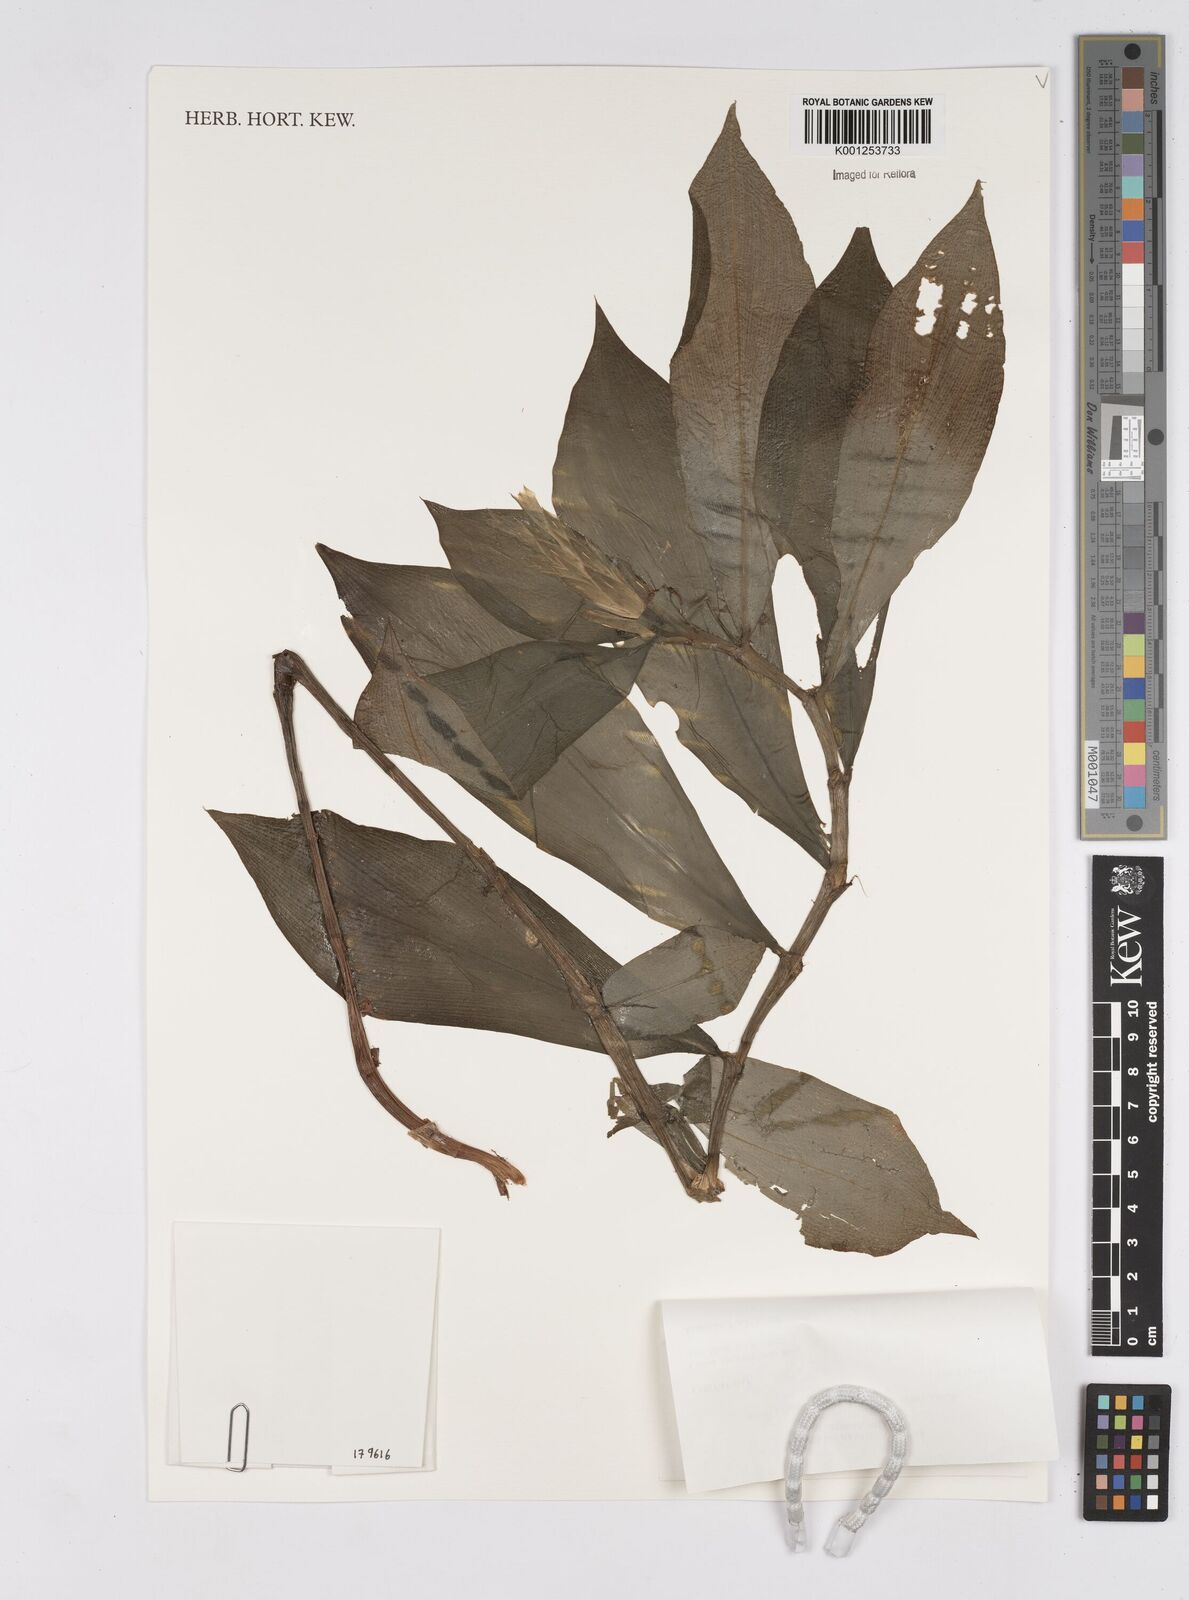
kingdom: Plantae
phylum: Tracheophyta
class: Liliopsida
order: Zingiberales
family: Costaceae
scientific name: Costaceae
